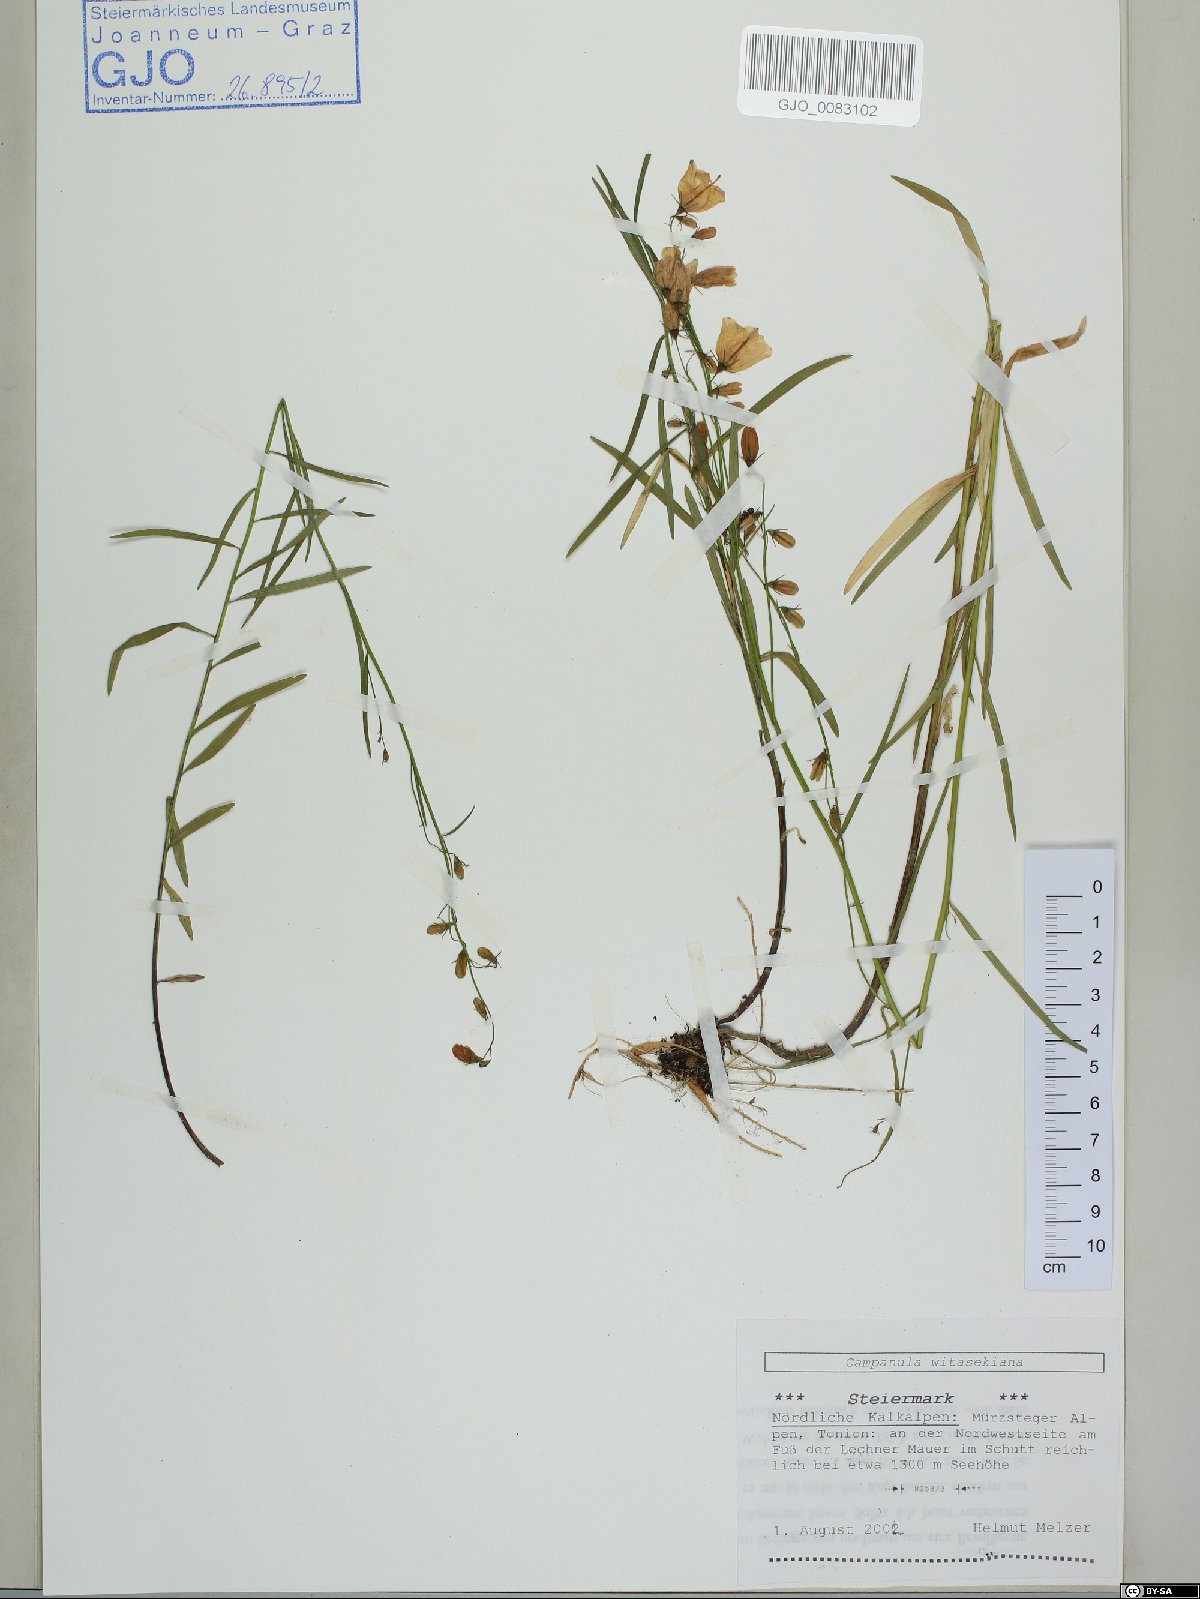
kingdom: Plantae
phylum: Tracheophyta
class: Magnoliopsida
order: Asterales
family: Campanulaceae
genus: Campanula
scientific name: Campanula witasekiana
